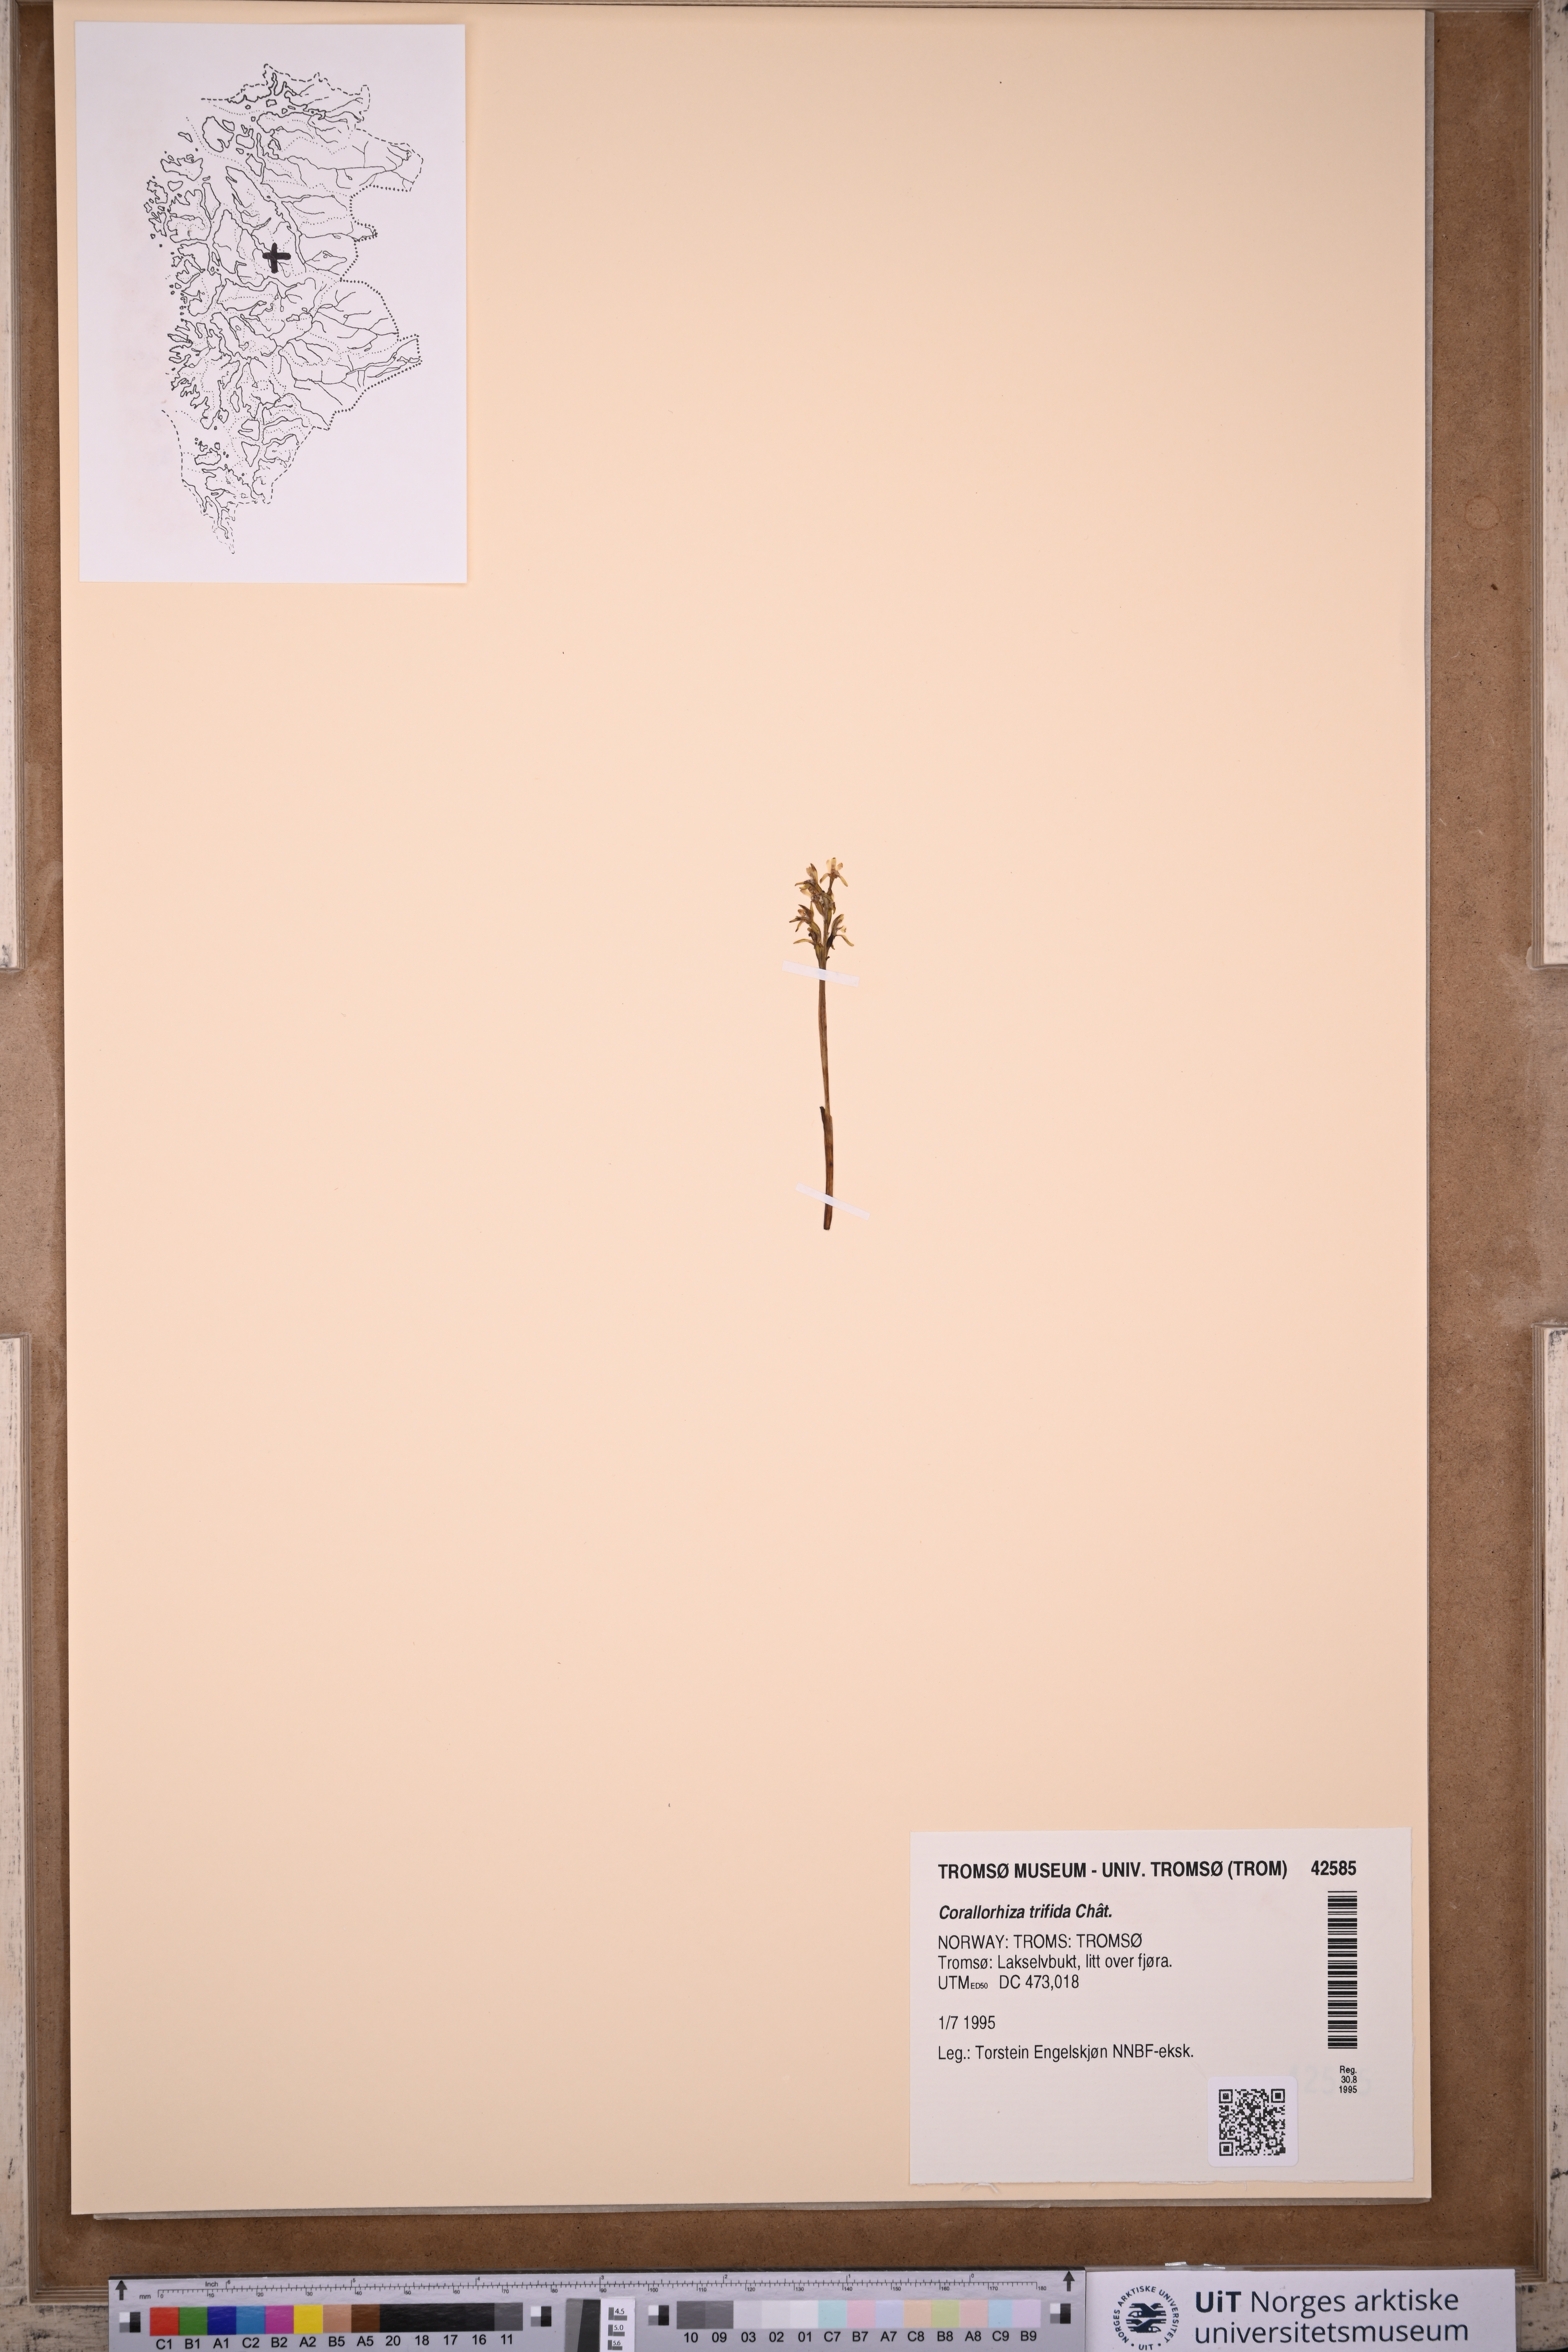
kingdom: Plantae
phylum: Tracheophyta
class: Liliopsida
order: Asparagales
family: Orchidaceae
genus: Corallorhiza
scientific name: Corallorhiza trifida
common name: Yellow coralroot
